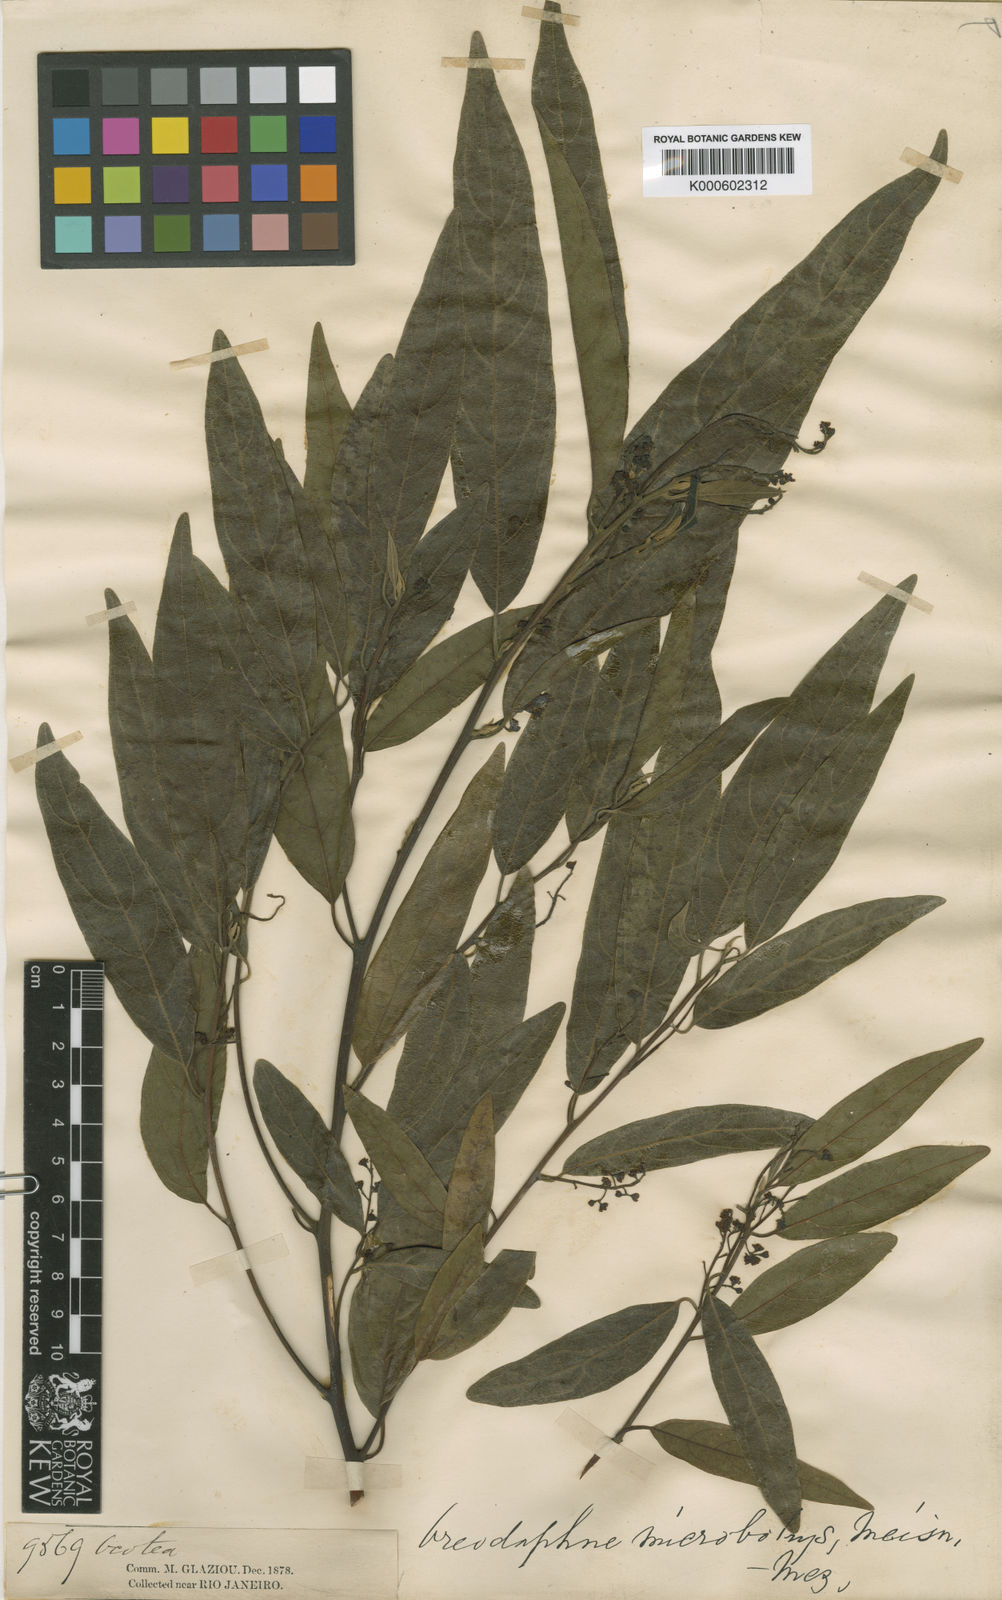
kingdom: Plantae
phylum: Tracheophyta
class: Magnoliopsida
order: Laurales
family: Lauraceae
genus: Ocotea
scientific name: Ocotea microbotrys
